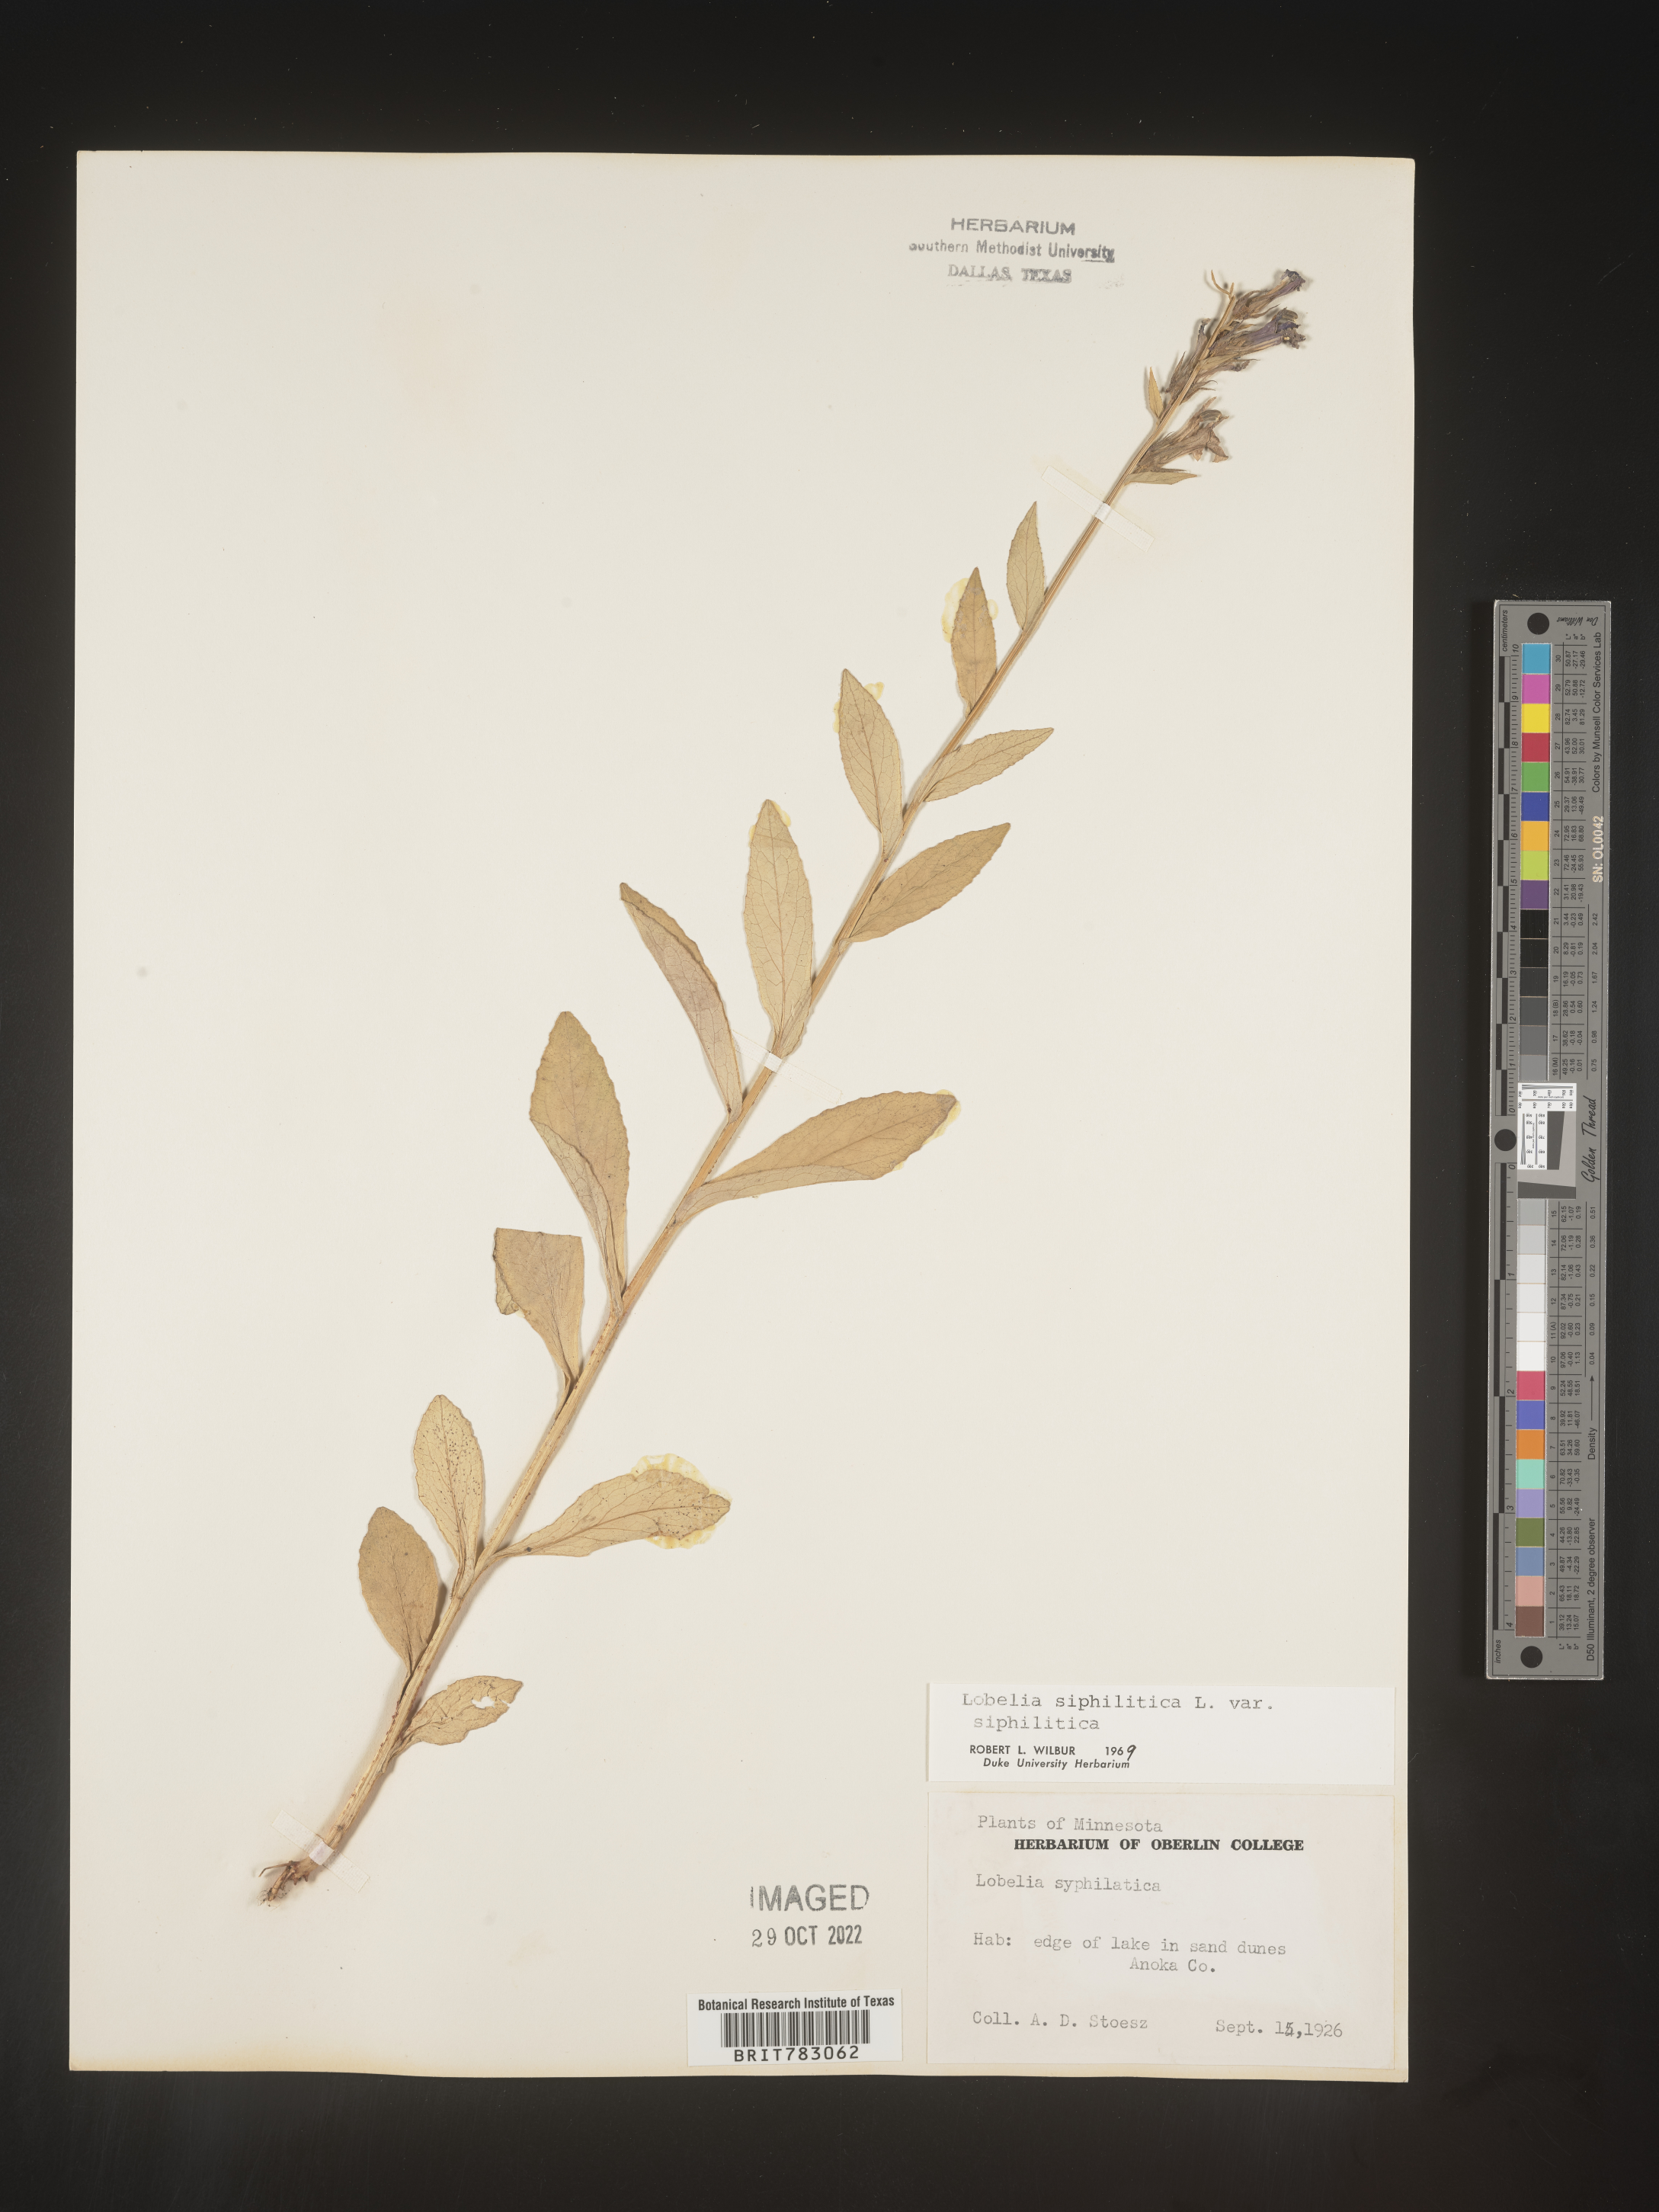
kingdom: Plantae
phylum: Tracheophyta
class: Magnoliopsida
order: Asterales
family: Campanulaceae
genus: Lobelia
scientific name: Lobelia siphilitica
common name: Great lobelia
